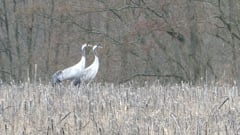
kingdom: Animalia
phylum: Chordata
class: Aves
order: Gruiformes
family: Gruidae
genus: Grus
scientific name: Grus grus
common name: Common crane
